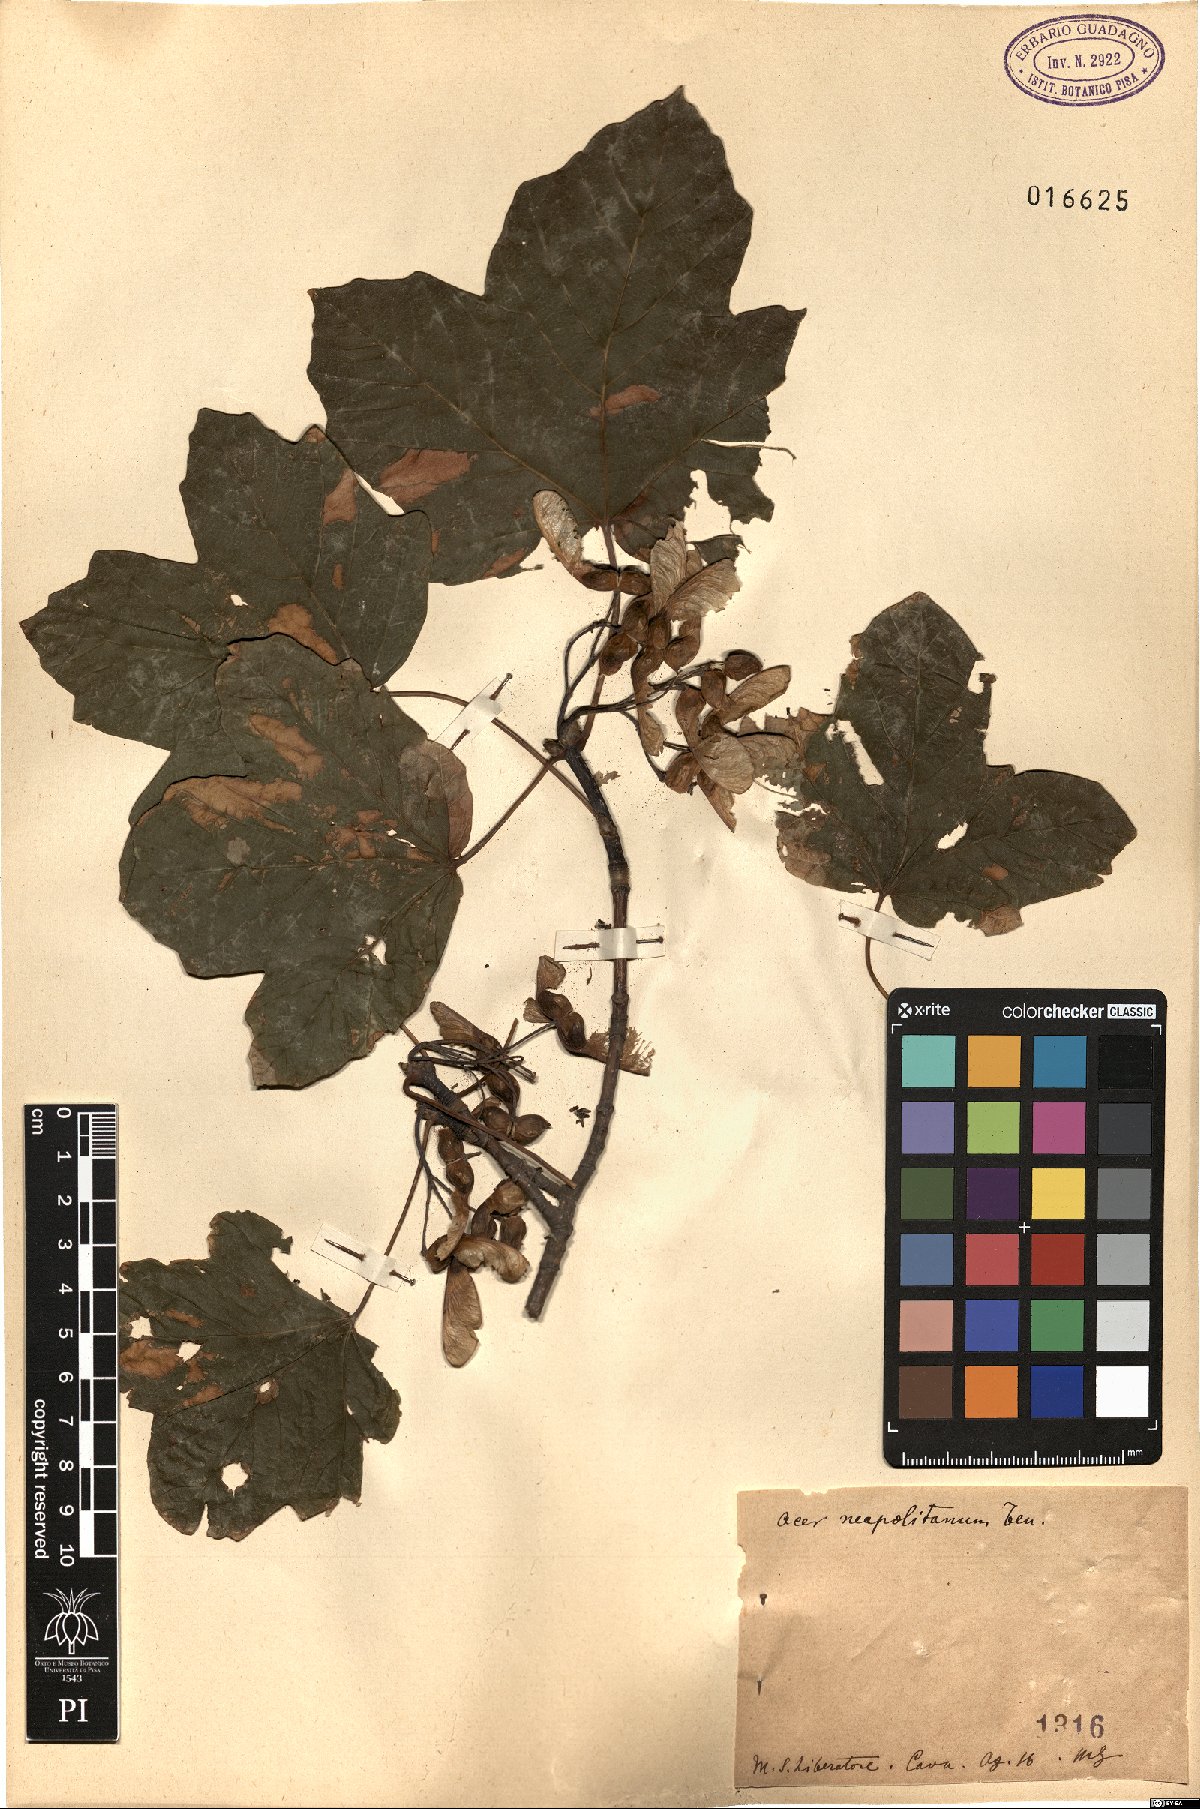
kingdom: Plantae
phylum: Tracheophyta
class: Magnoliopsida
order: Sapindales
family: Sapindaceae
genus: Acer
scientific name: Acer obtusatum
